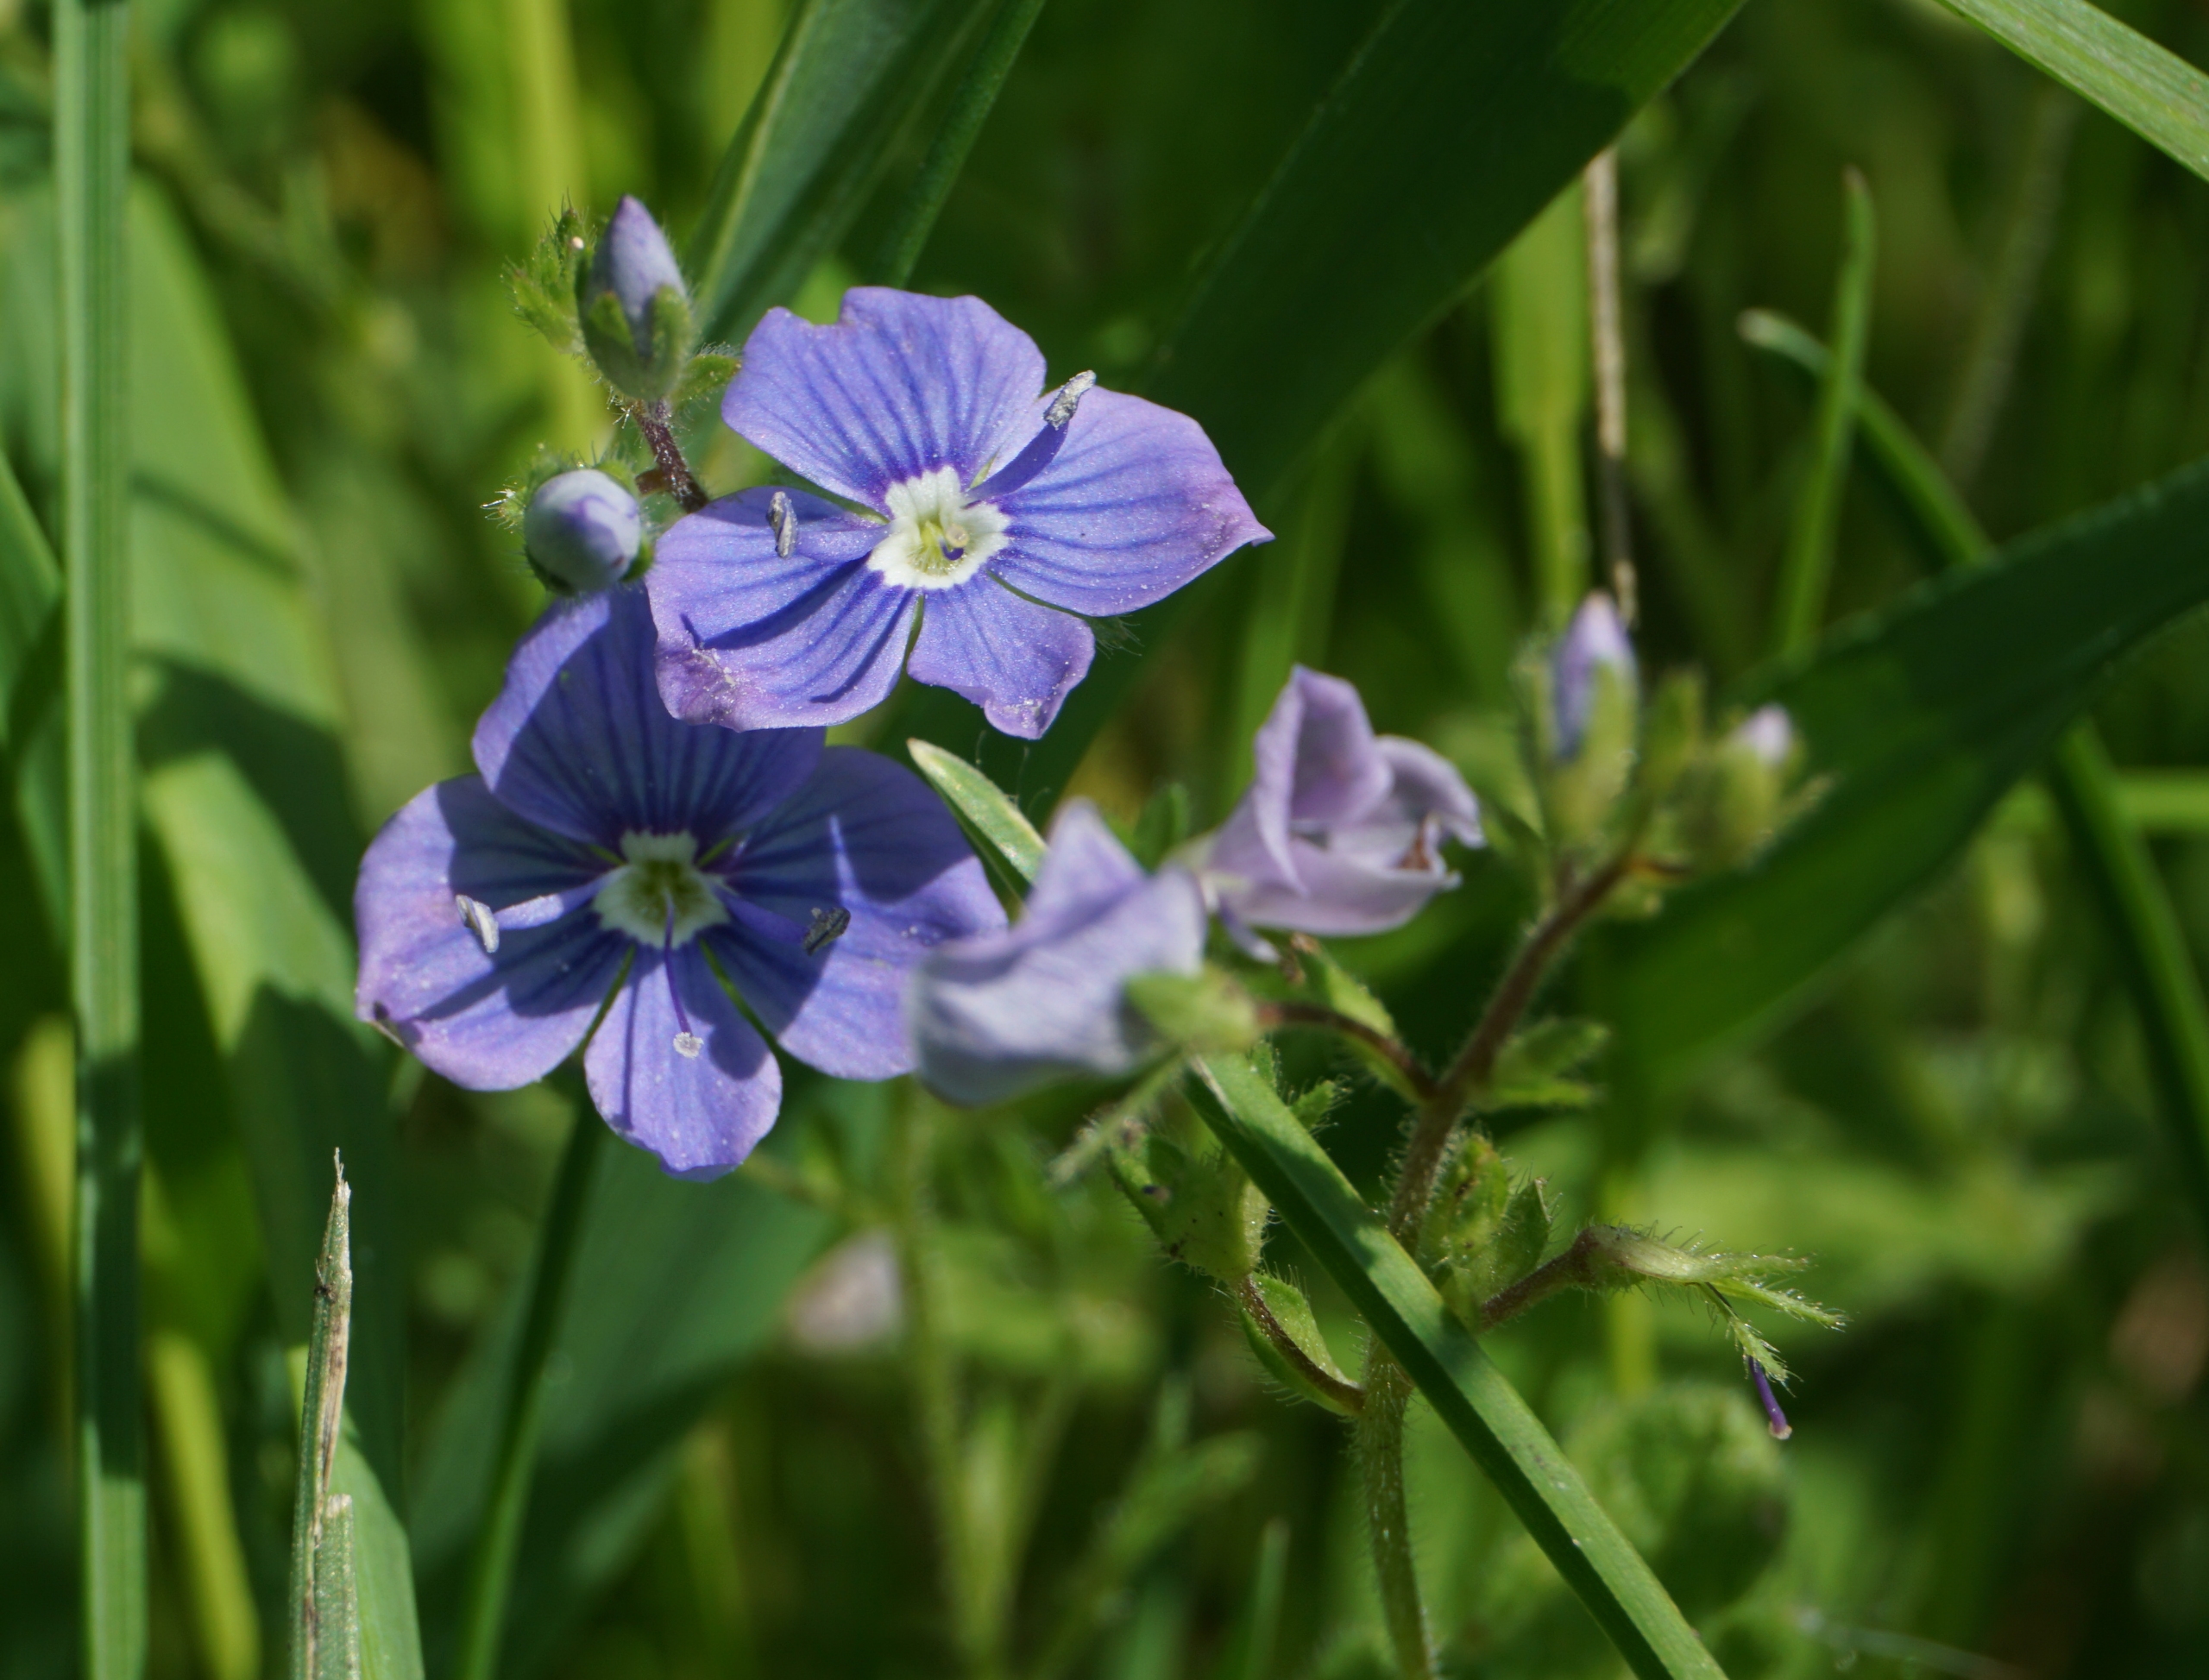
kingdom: Plantae
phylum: Tracheophyta
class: Magnoliopsida
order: Lamiales
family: Plantaginaceae
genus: Veronica
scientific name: Veronica chamaedrys
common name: Tveskægget ærenpris
